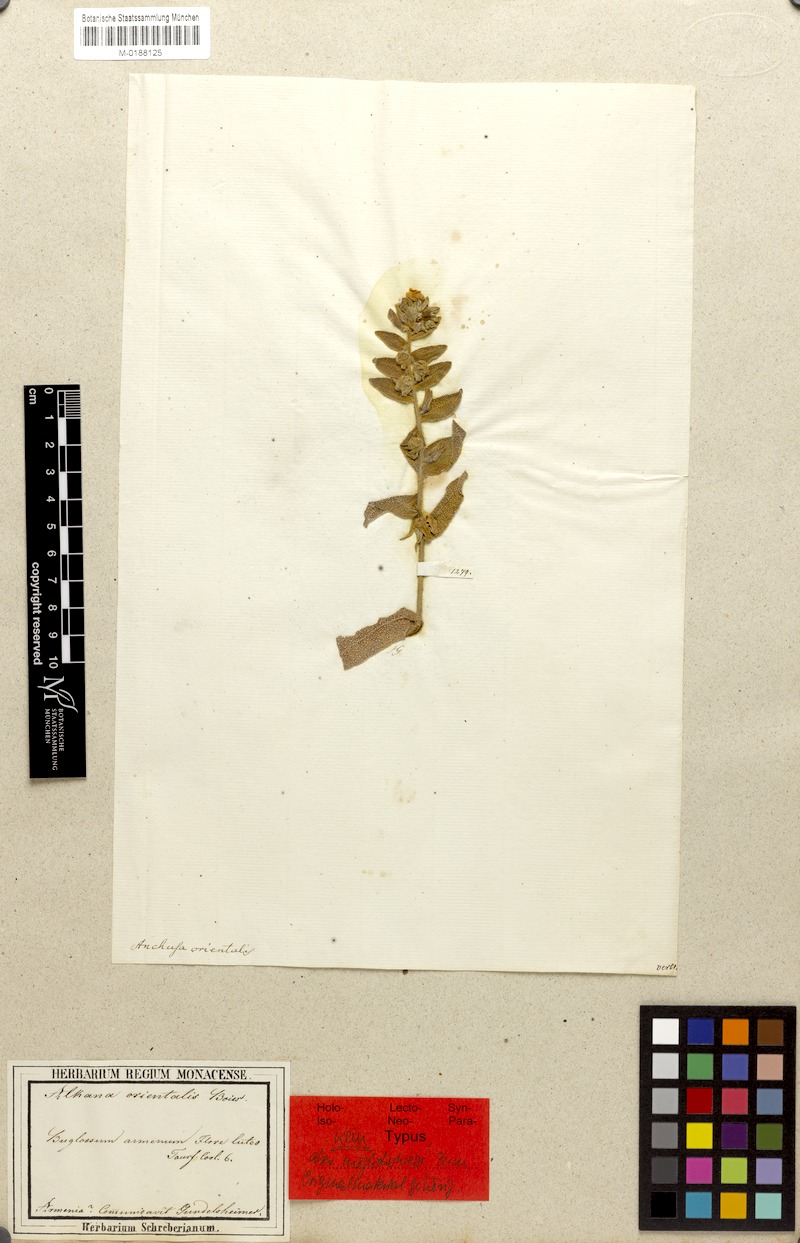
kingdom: Plantae
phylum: Tracheophyta
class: Magnoliopsida
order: Boraginales
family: Boraginaceae
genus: Alkanna
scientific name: Alkanna orientalis
